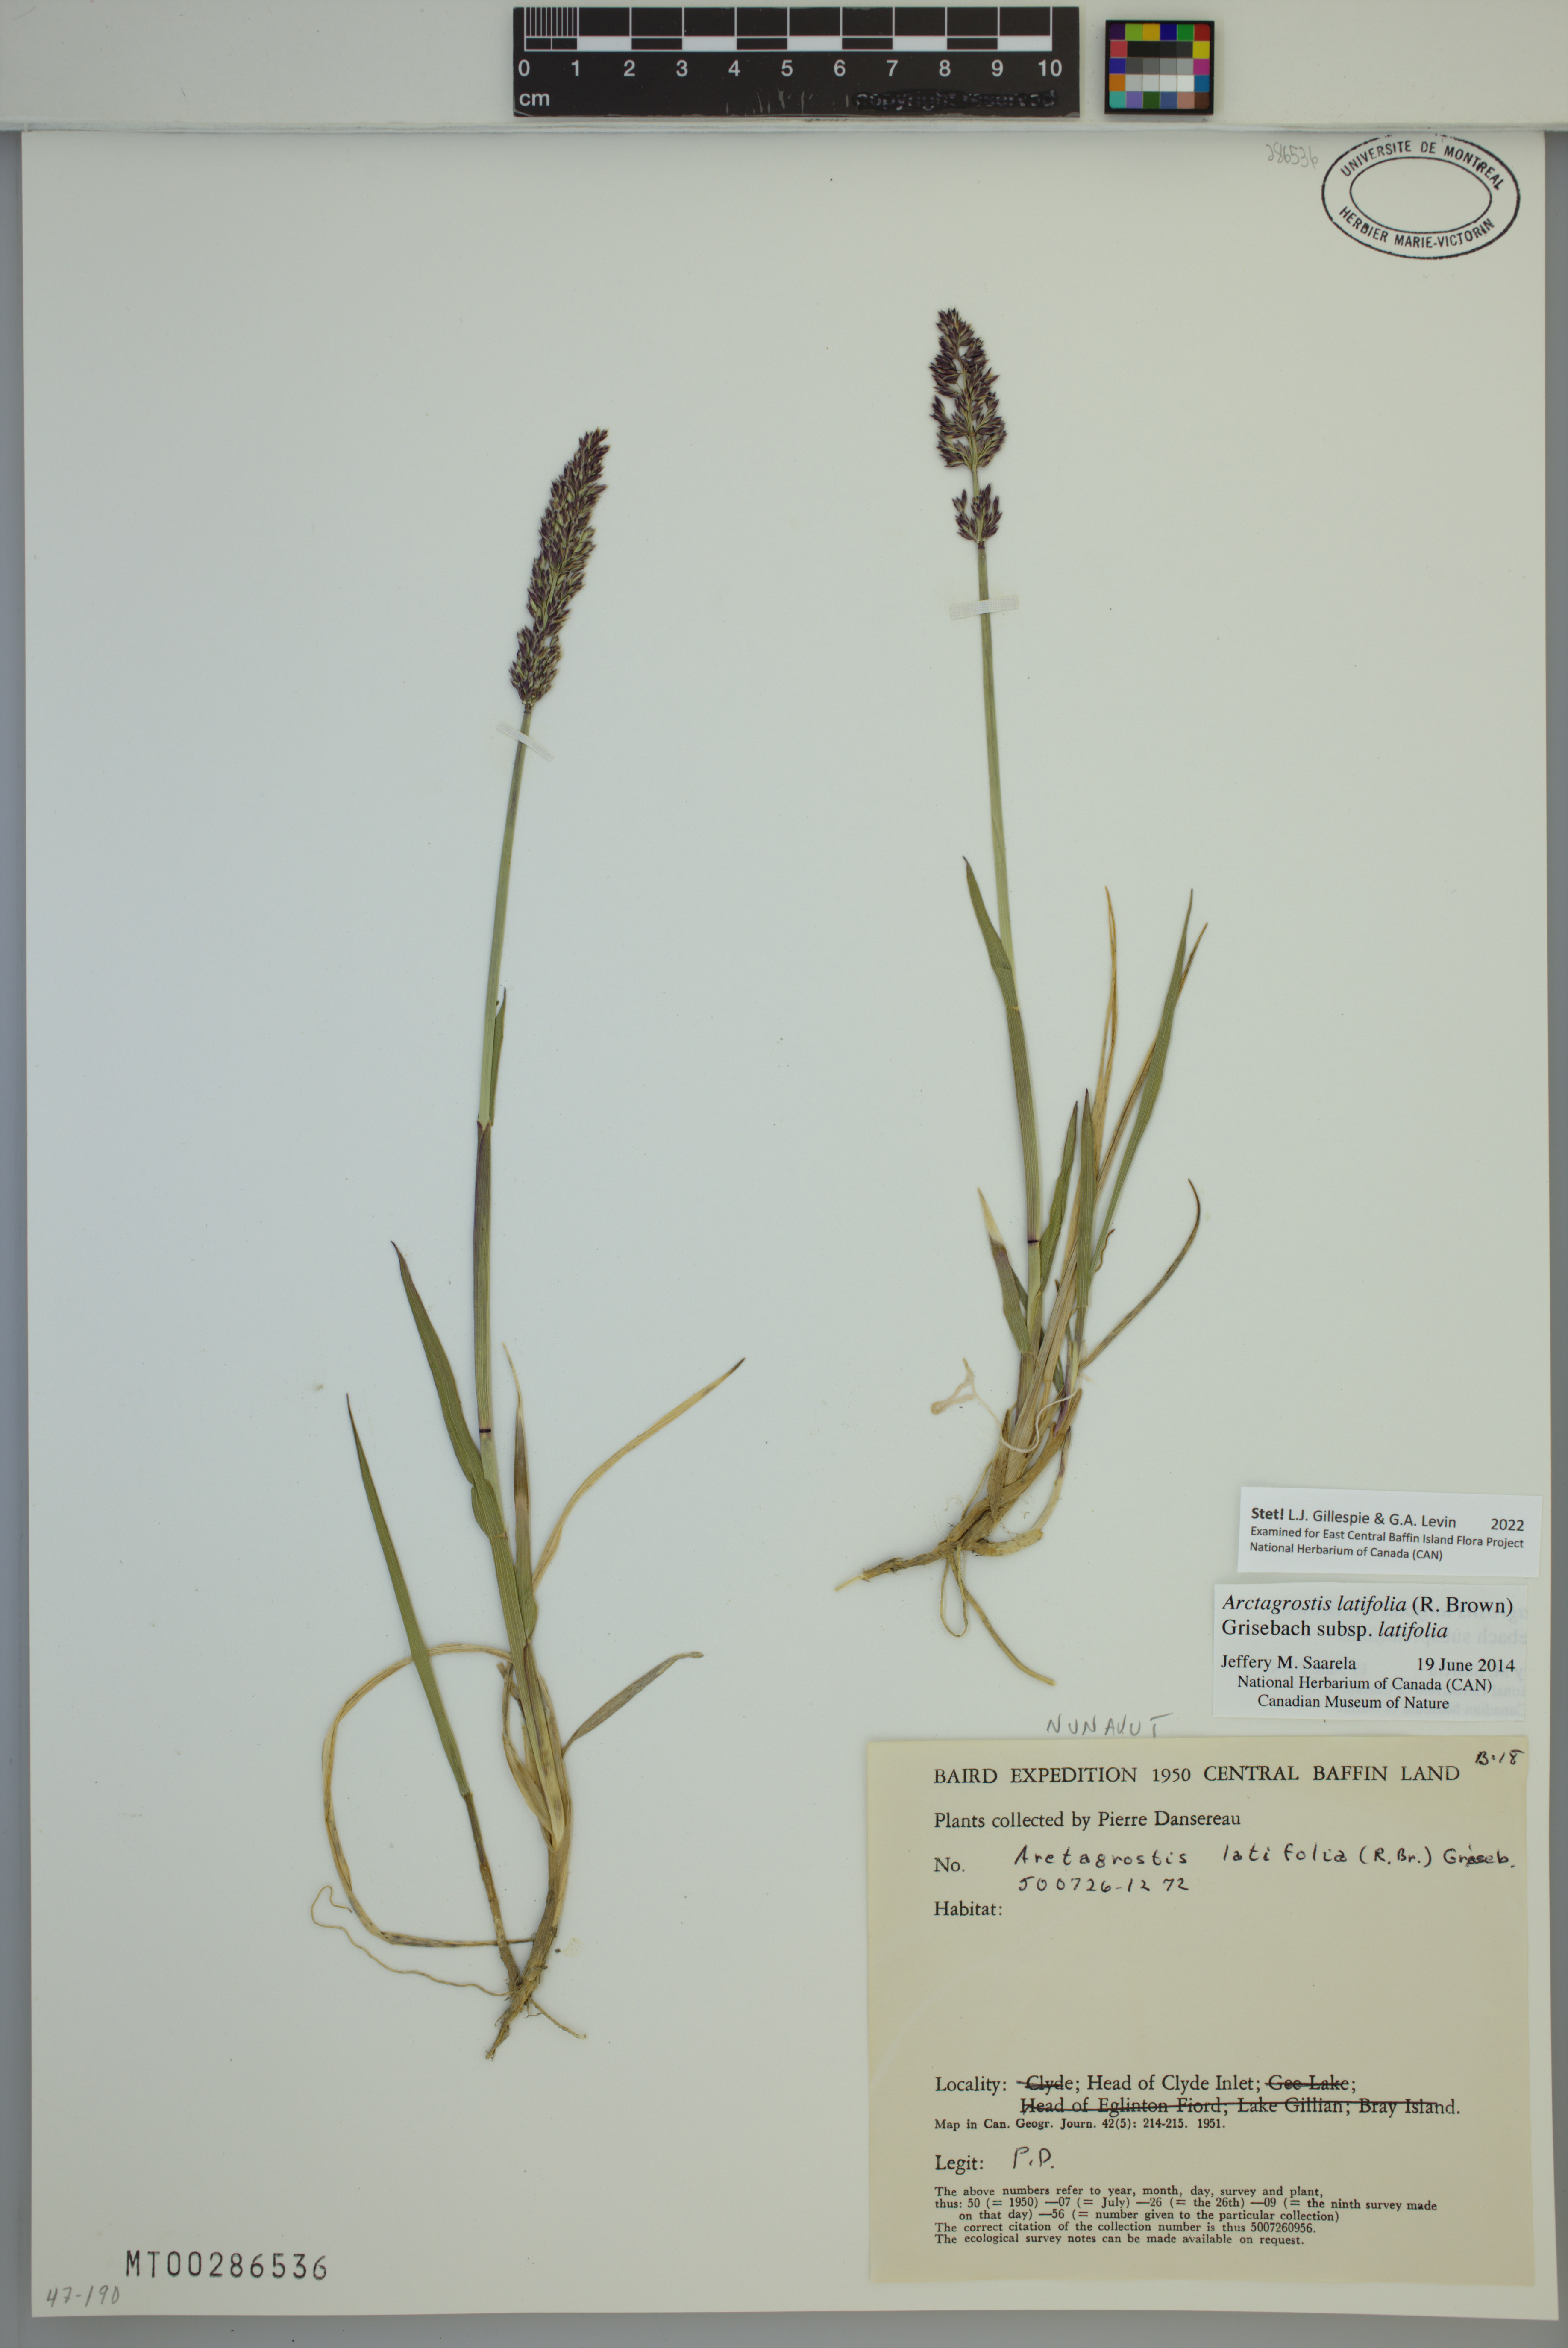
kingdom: Plantae
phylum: Tracheophyta
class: Liliopsida
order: Poales
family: Poaceae
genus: Arctagrostis
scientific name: Arctagrostis latifolia
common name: Arctic grass
